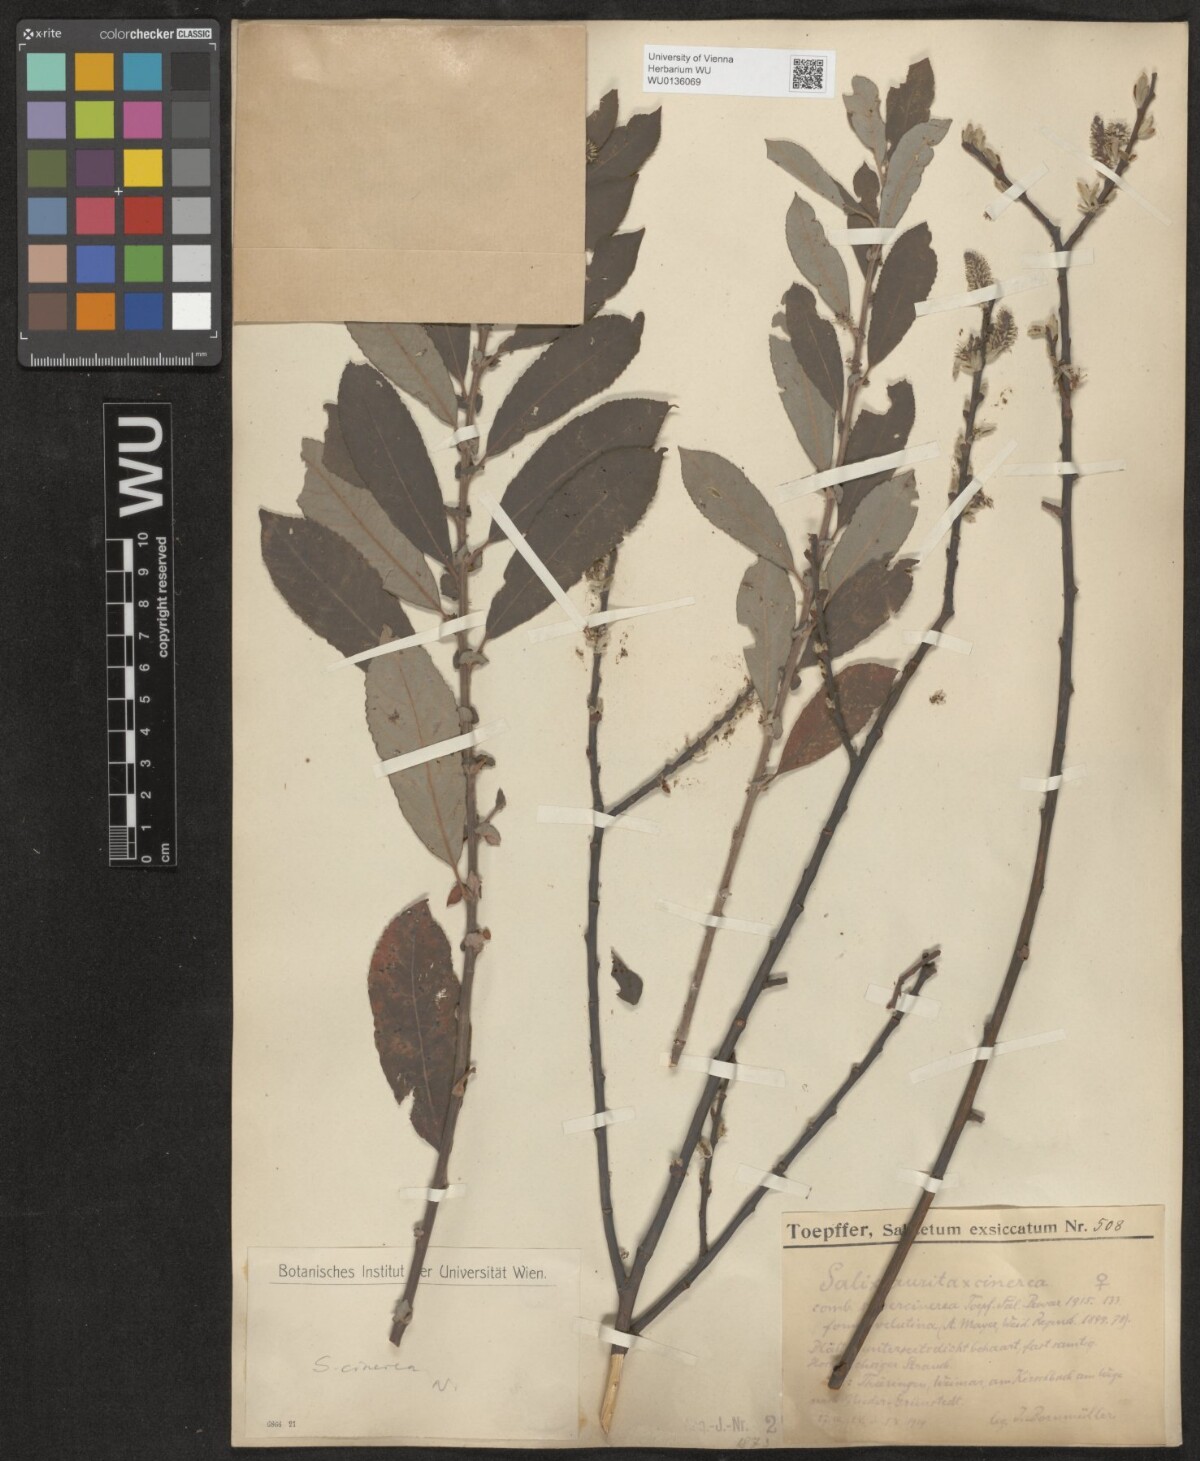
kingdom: Plantae
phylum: Tracheophyta
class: Magnoliopsida
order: Malpighiales
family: Salicaceae
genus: Salix
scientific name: Salix cinerea
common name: Common sallow
